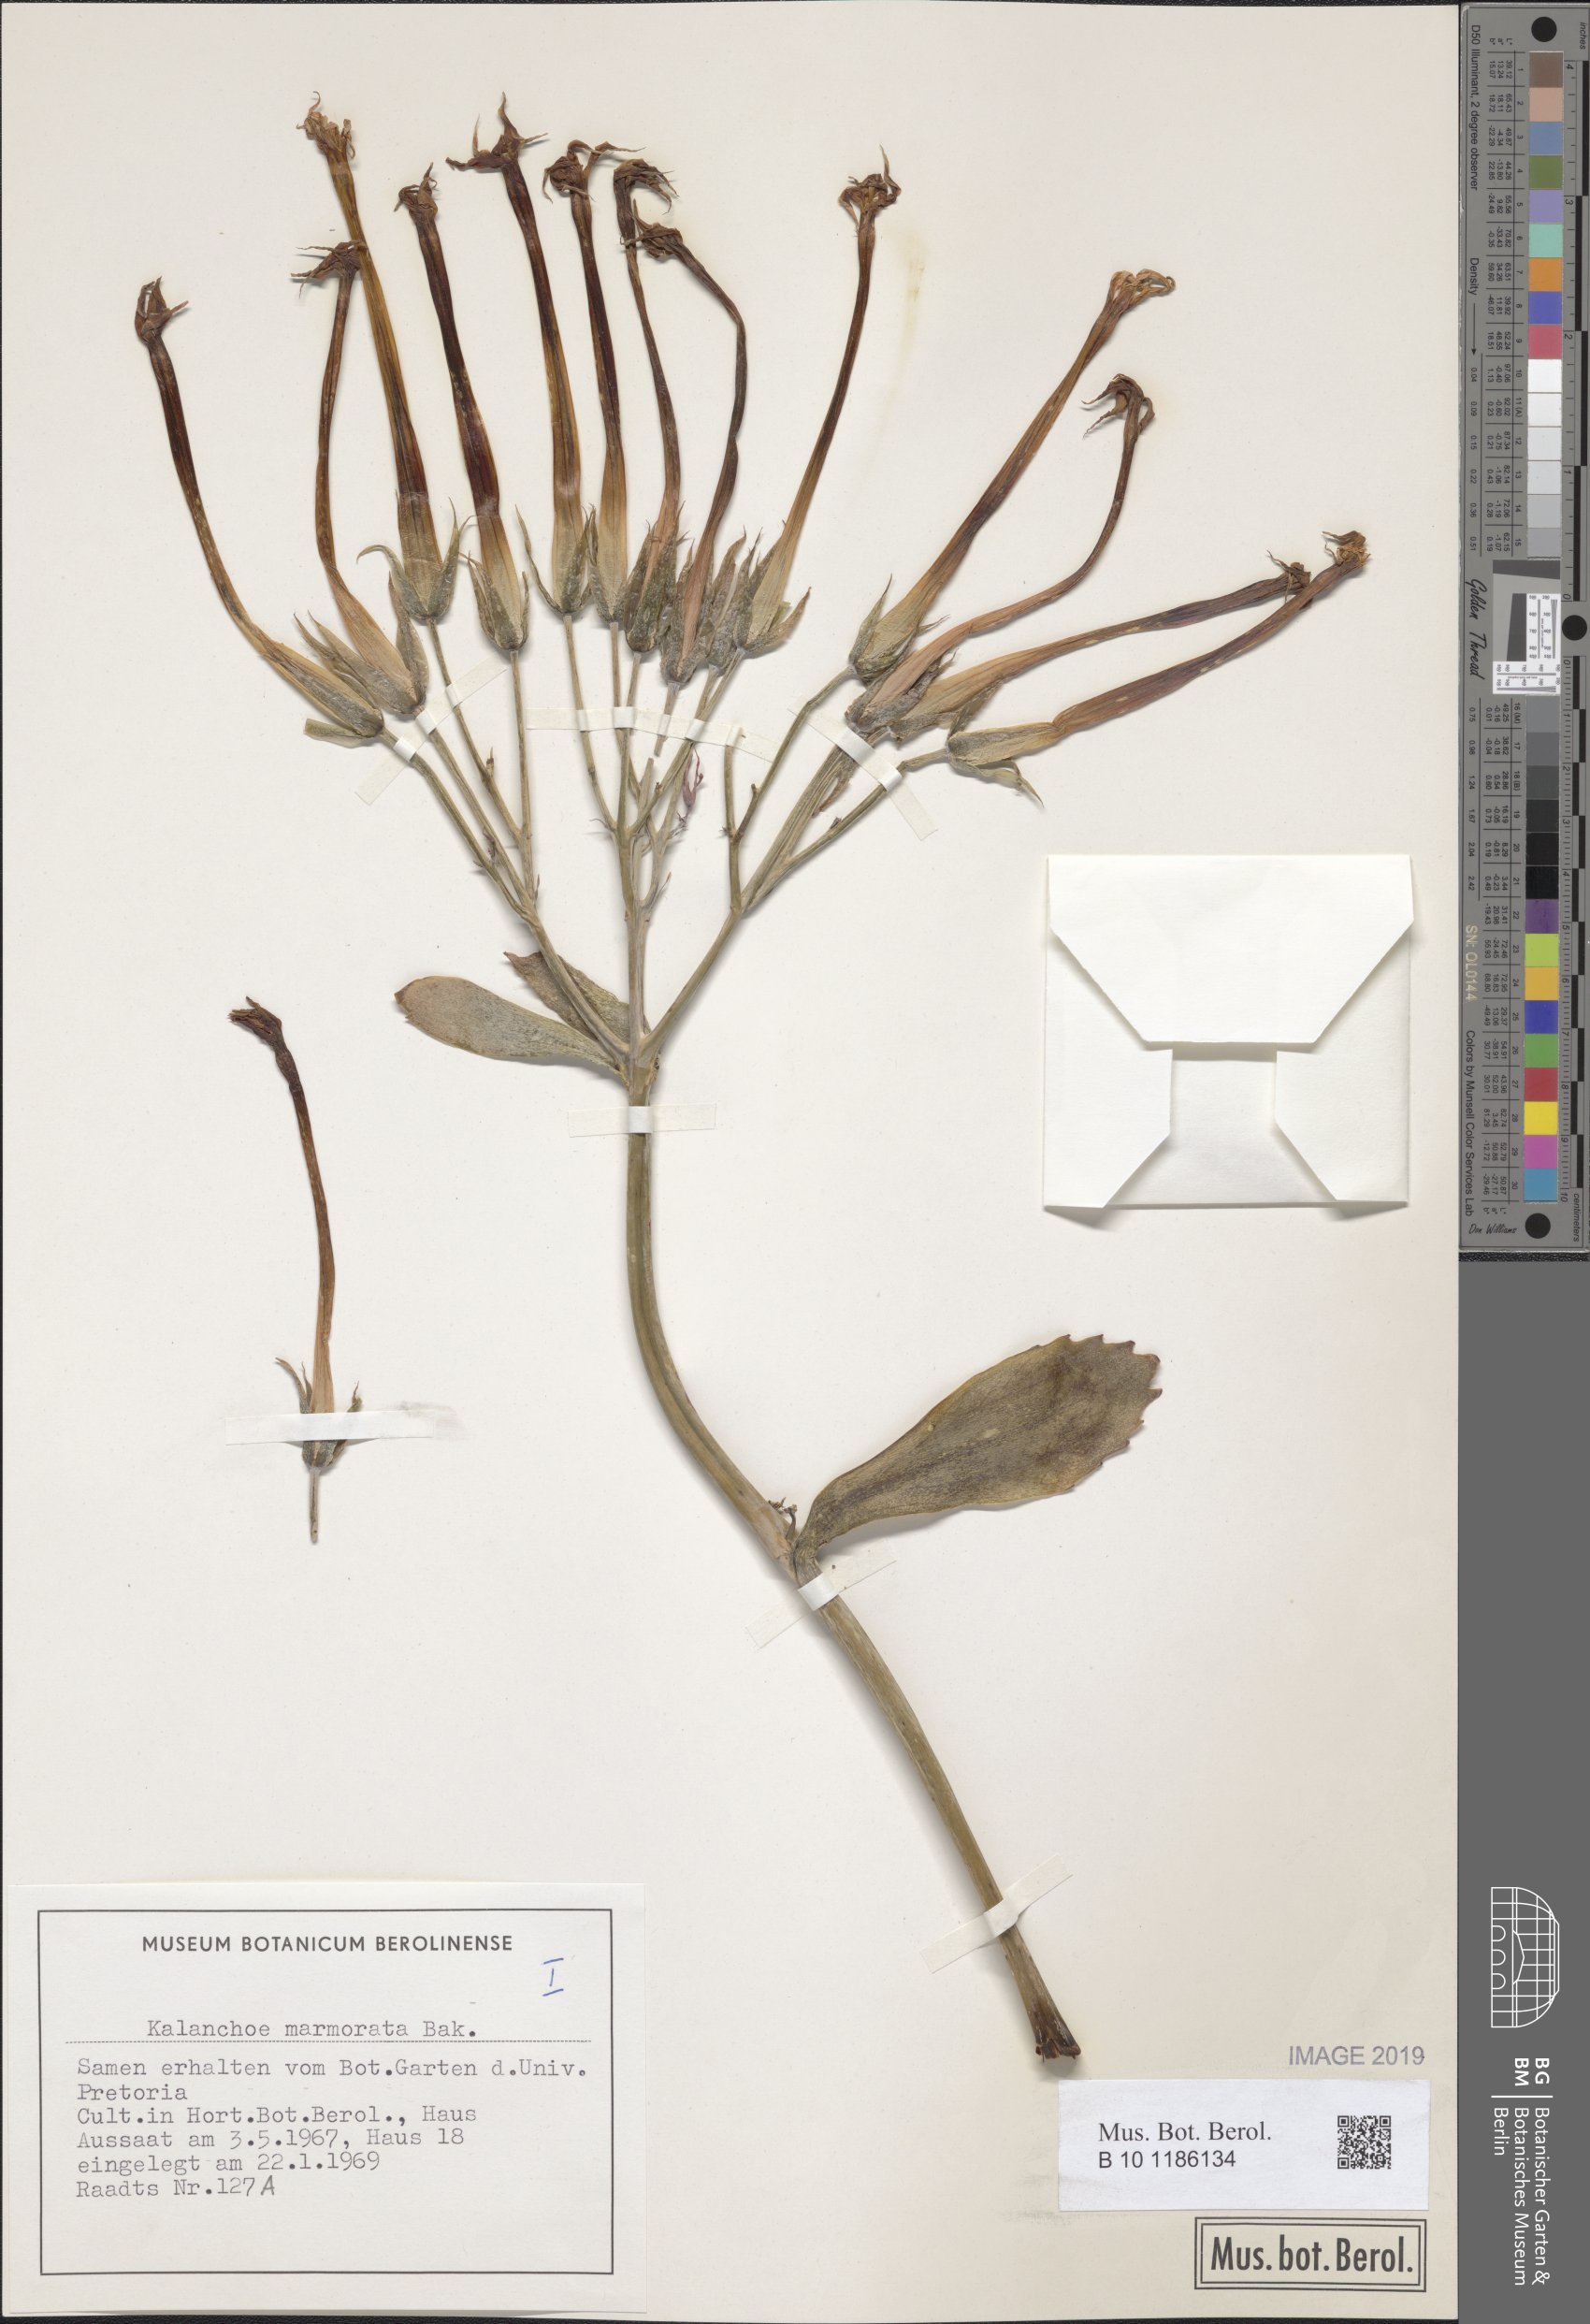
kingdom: Plantae
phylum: Tracheophyta
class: Magnoliopsida
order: Saxifragales
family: Crassulaceae
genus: Kalanchoe
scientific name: Kalanchoe marmorata
